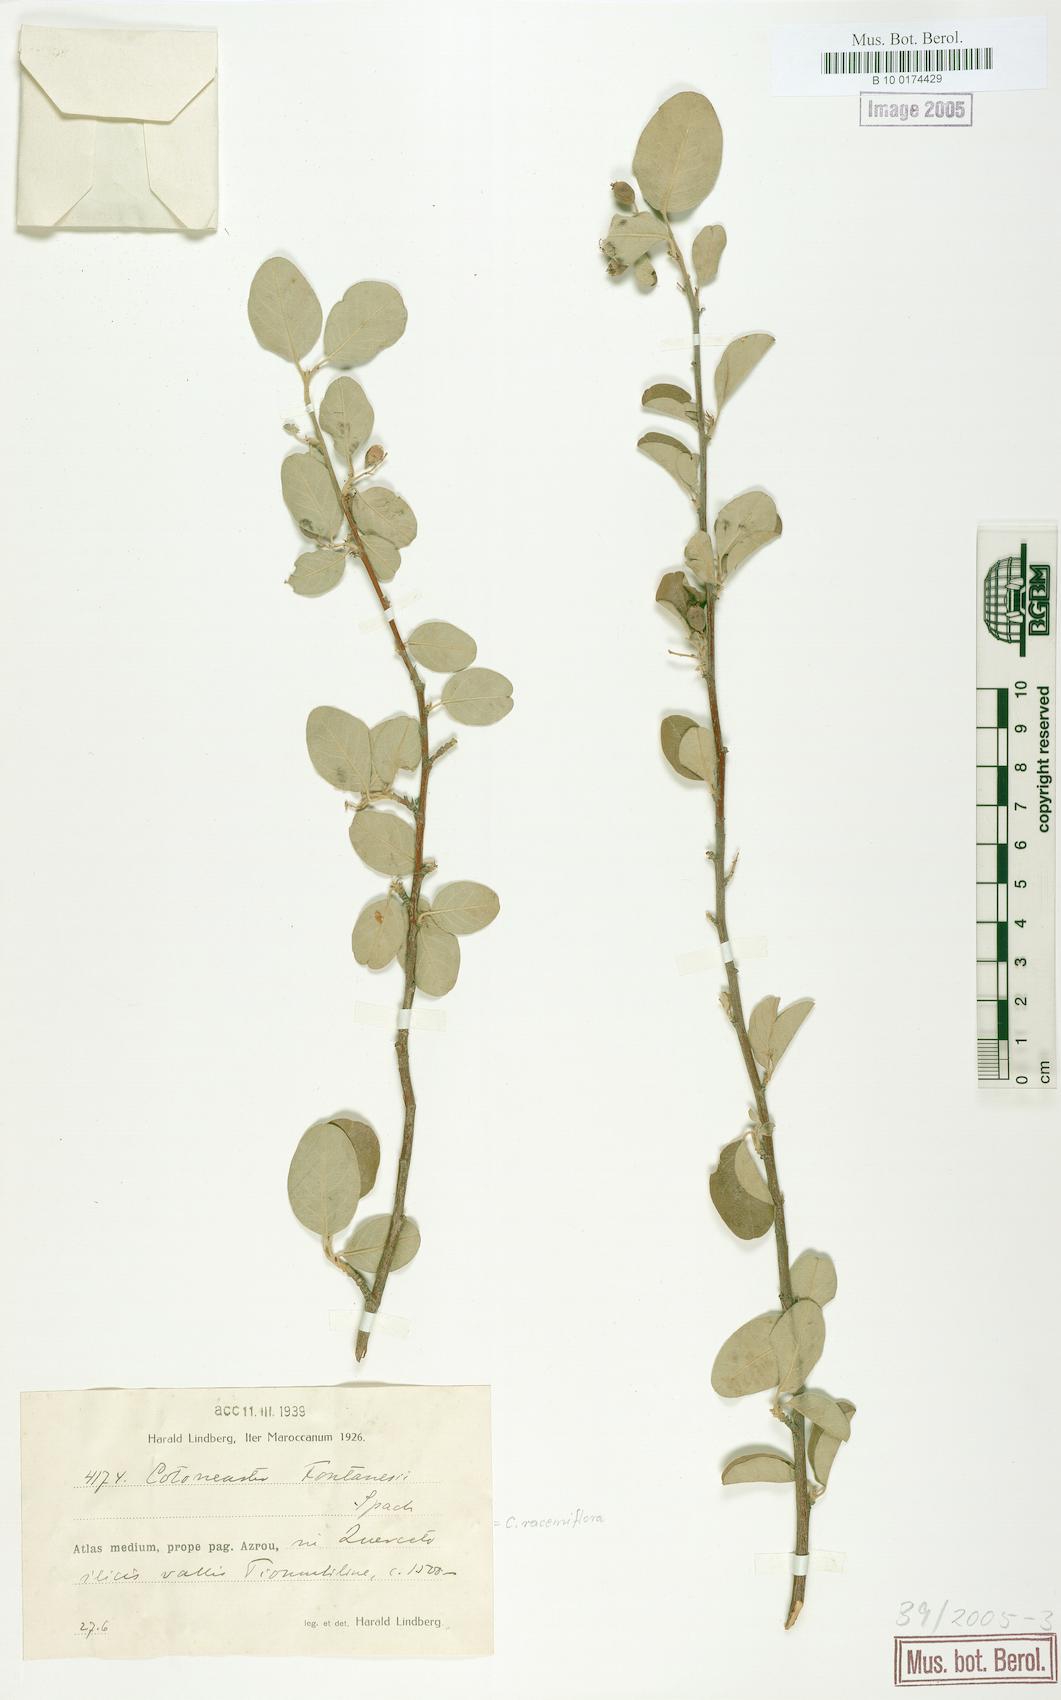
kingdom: Plantae
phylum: Tracheophyta
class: Magnoliopsida
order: Rosales
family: Rosaceae
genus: Cotoneaster
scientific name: Cotoneaster racemiflorus
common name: Cluster-flower cotoneaster
